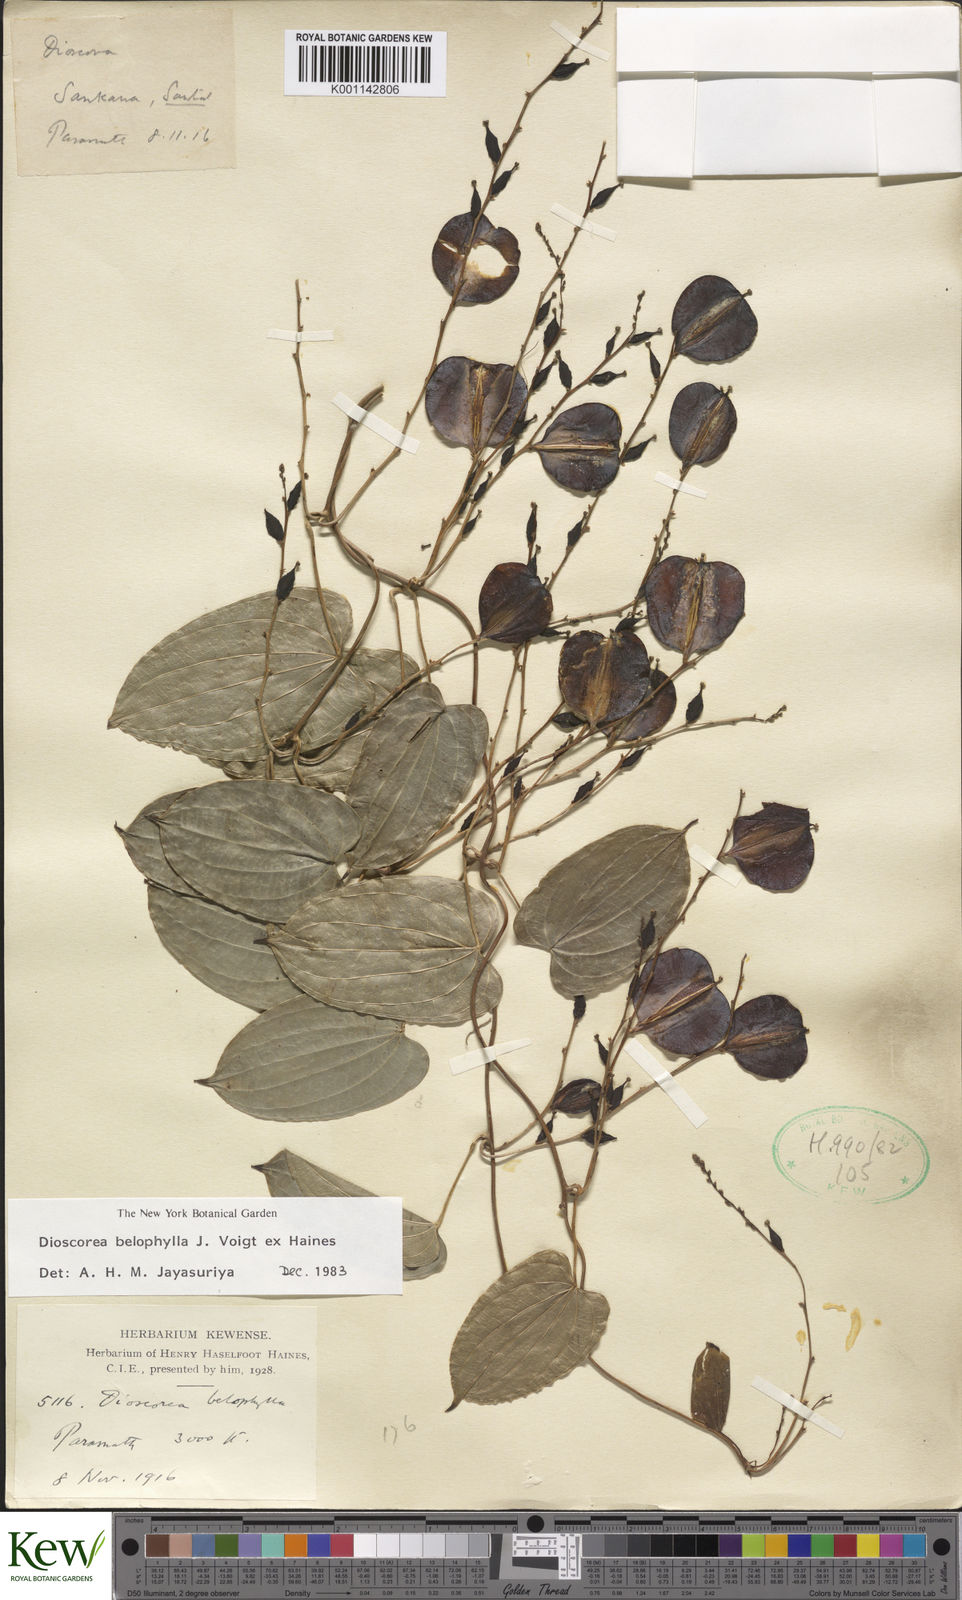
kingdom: Plantae
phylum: Tracheophyta
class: Liliopsida
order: Dioscoreales
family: Dioscoreaceae
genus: Dioscorea
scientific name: Dioscorea belophylla
